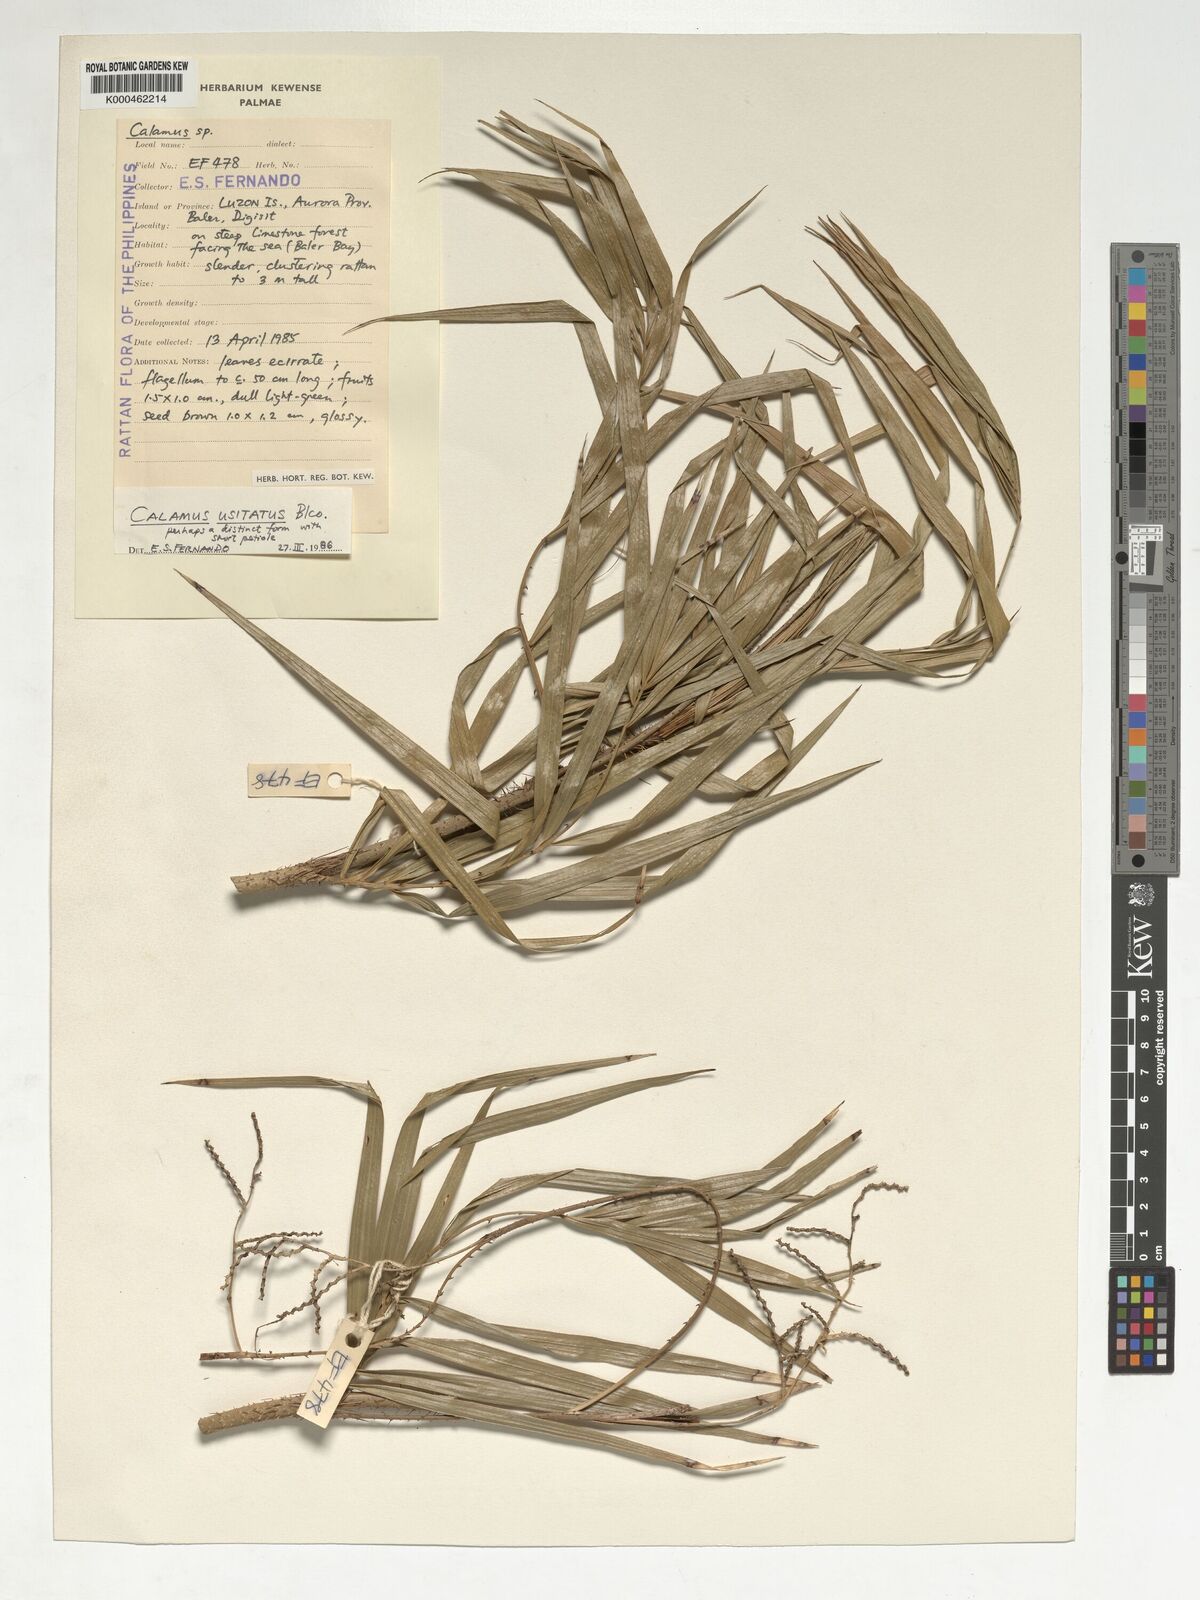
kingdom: Plantae
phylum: Tracheophyta
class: Liliopsida
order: Arecales
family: Arecaceae
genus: Calamus
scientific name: Calamus usitatus
